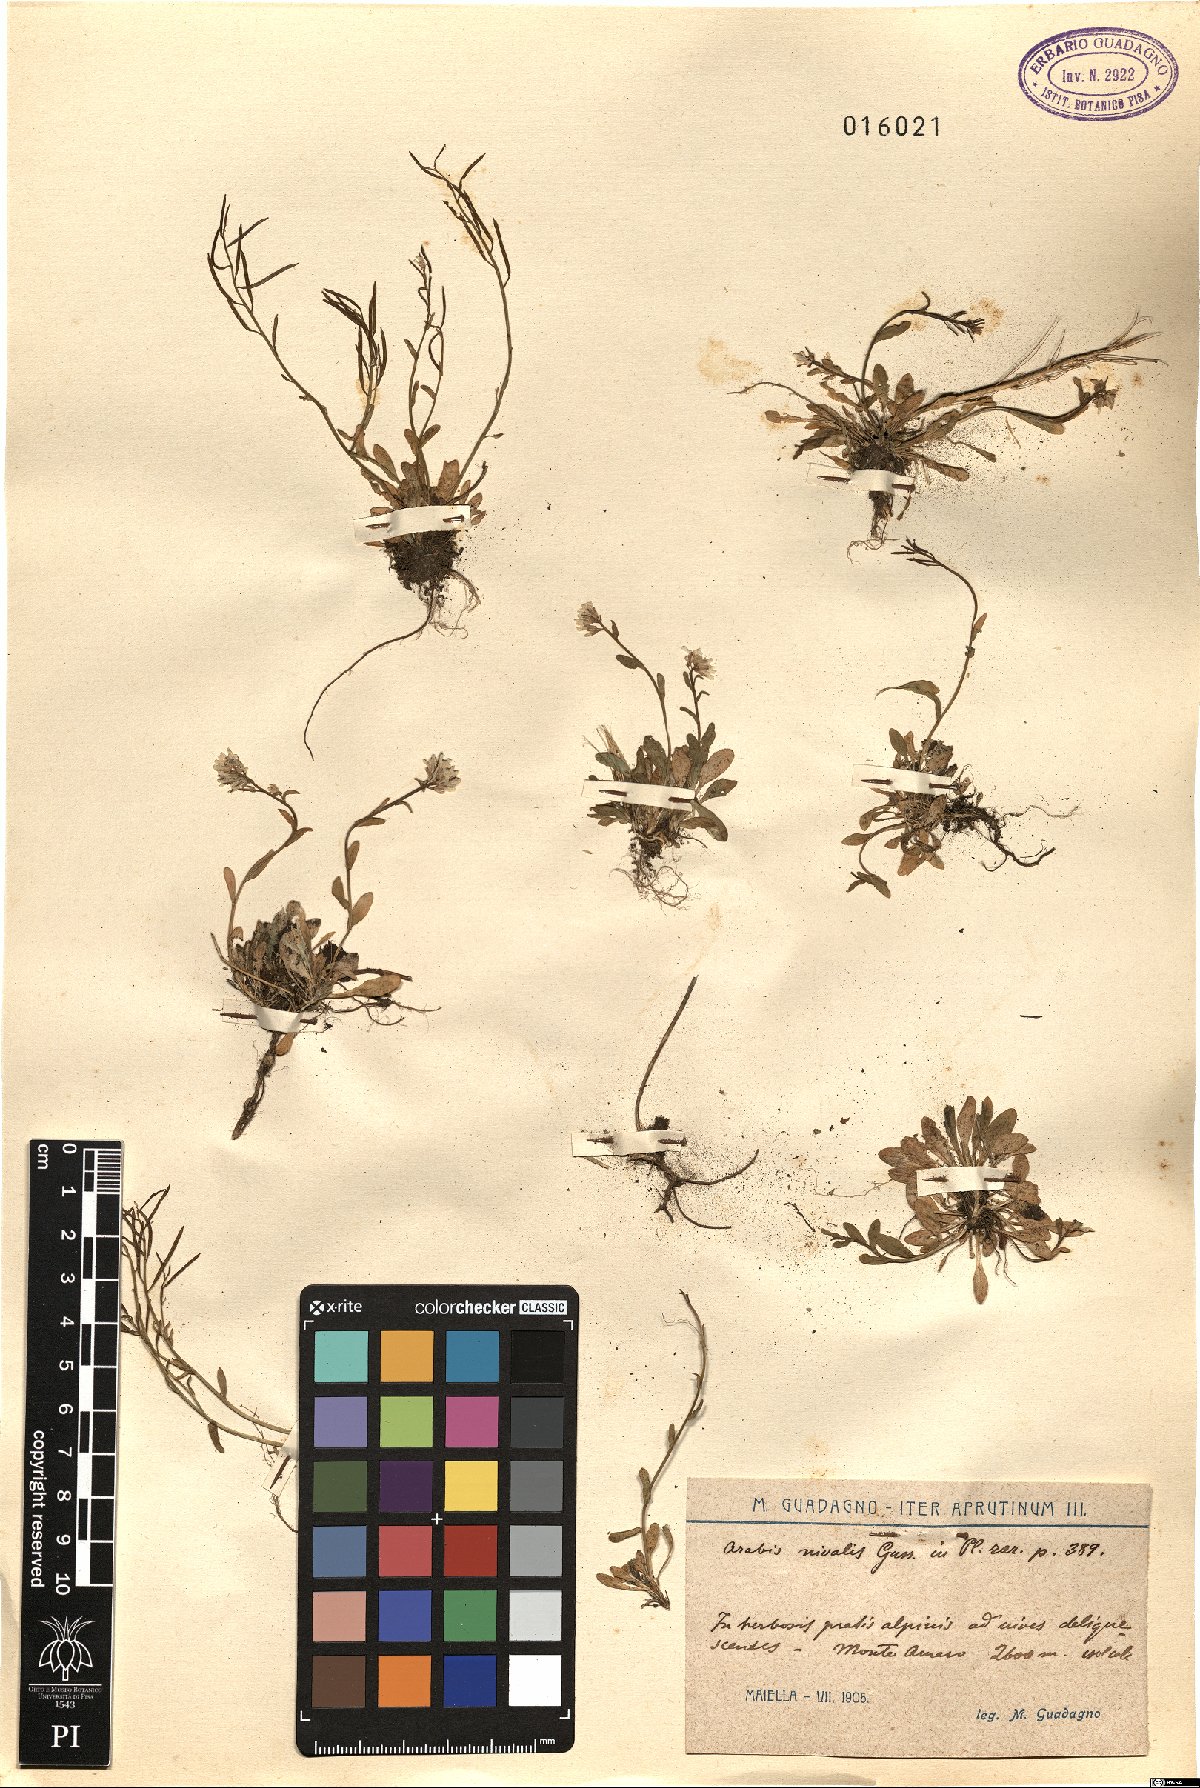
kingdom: Plantae
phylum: Tracheophyta
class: Magnoliopsida
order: Brassicales
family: Brassicaceae
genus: Arabis
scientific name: Arabis surculosa
